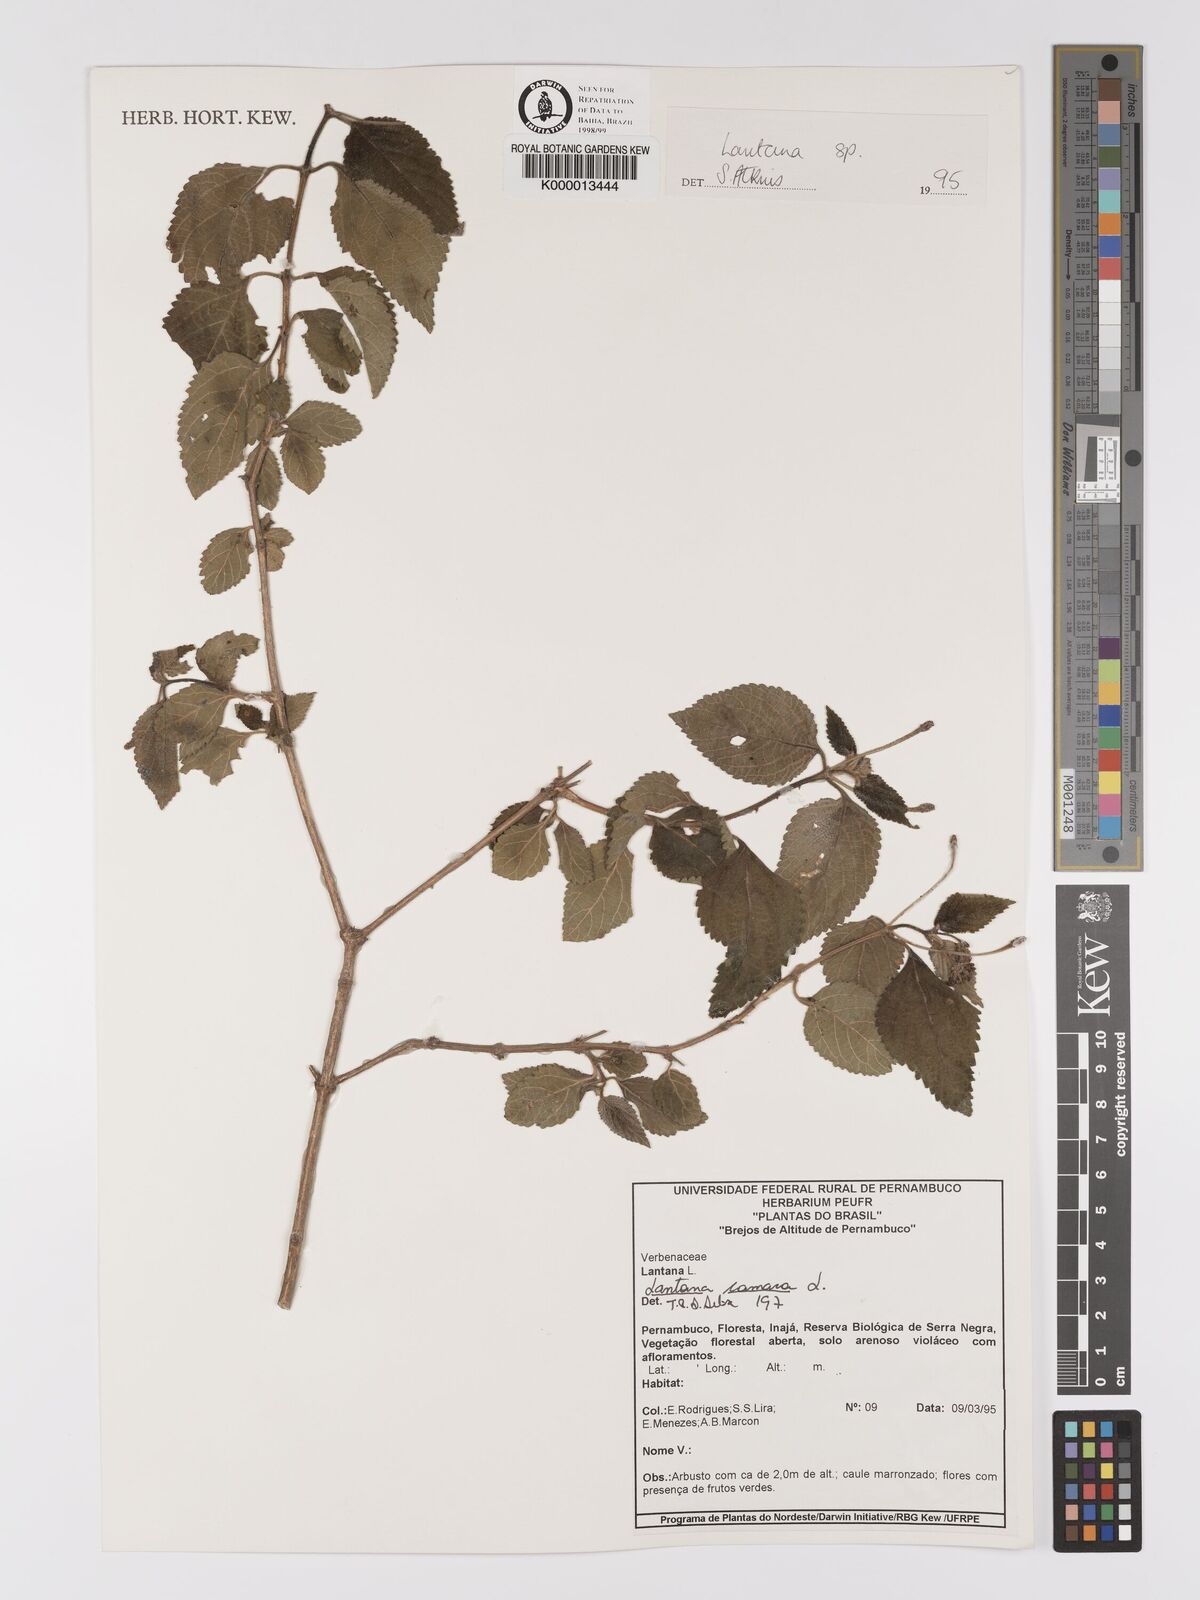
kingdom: Plantae
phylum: Tracheophyta
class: Magnoliopsida
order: Lamiales
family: Verbenaceae
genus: Lantana
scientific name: Lantana camara
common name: Lantana
